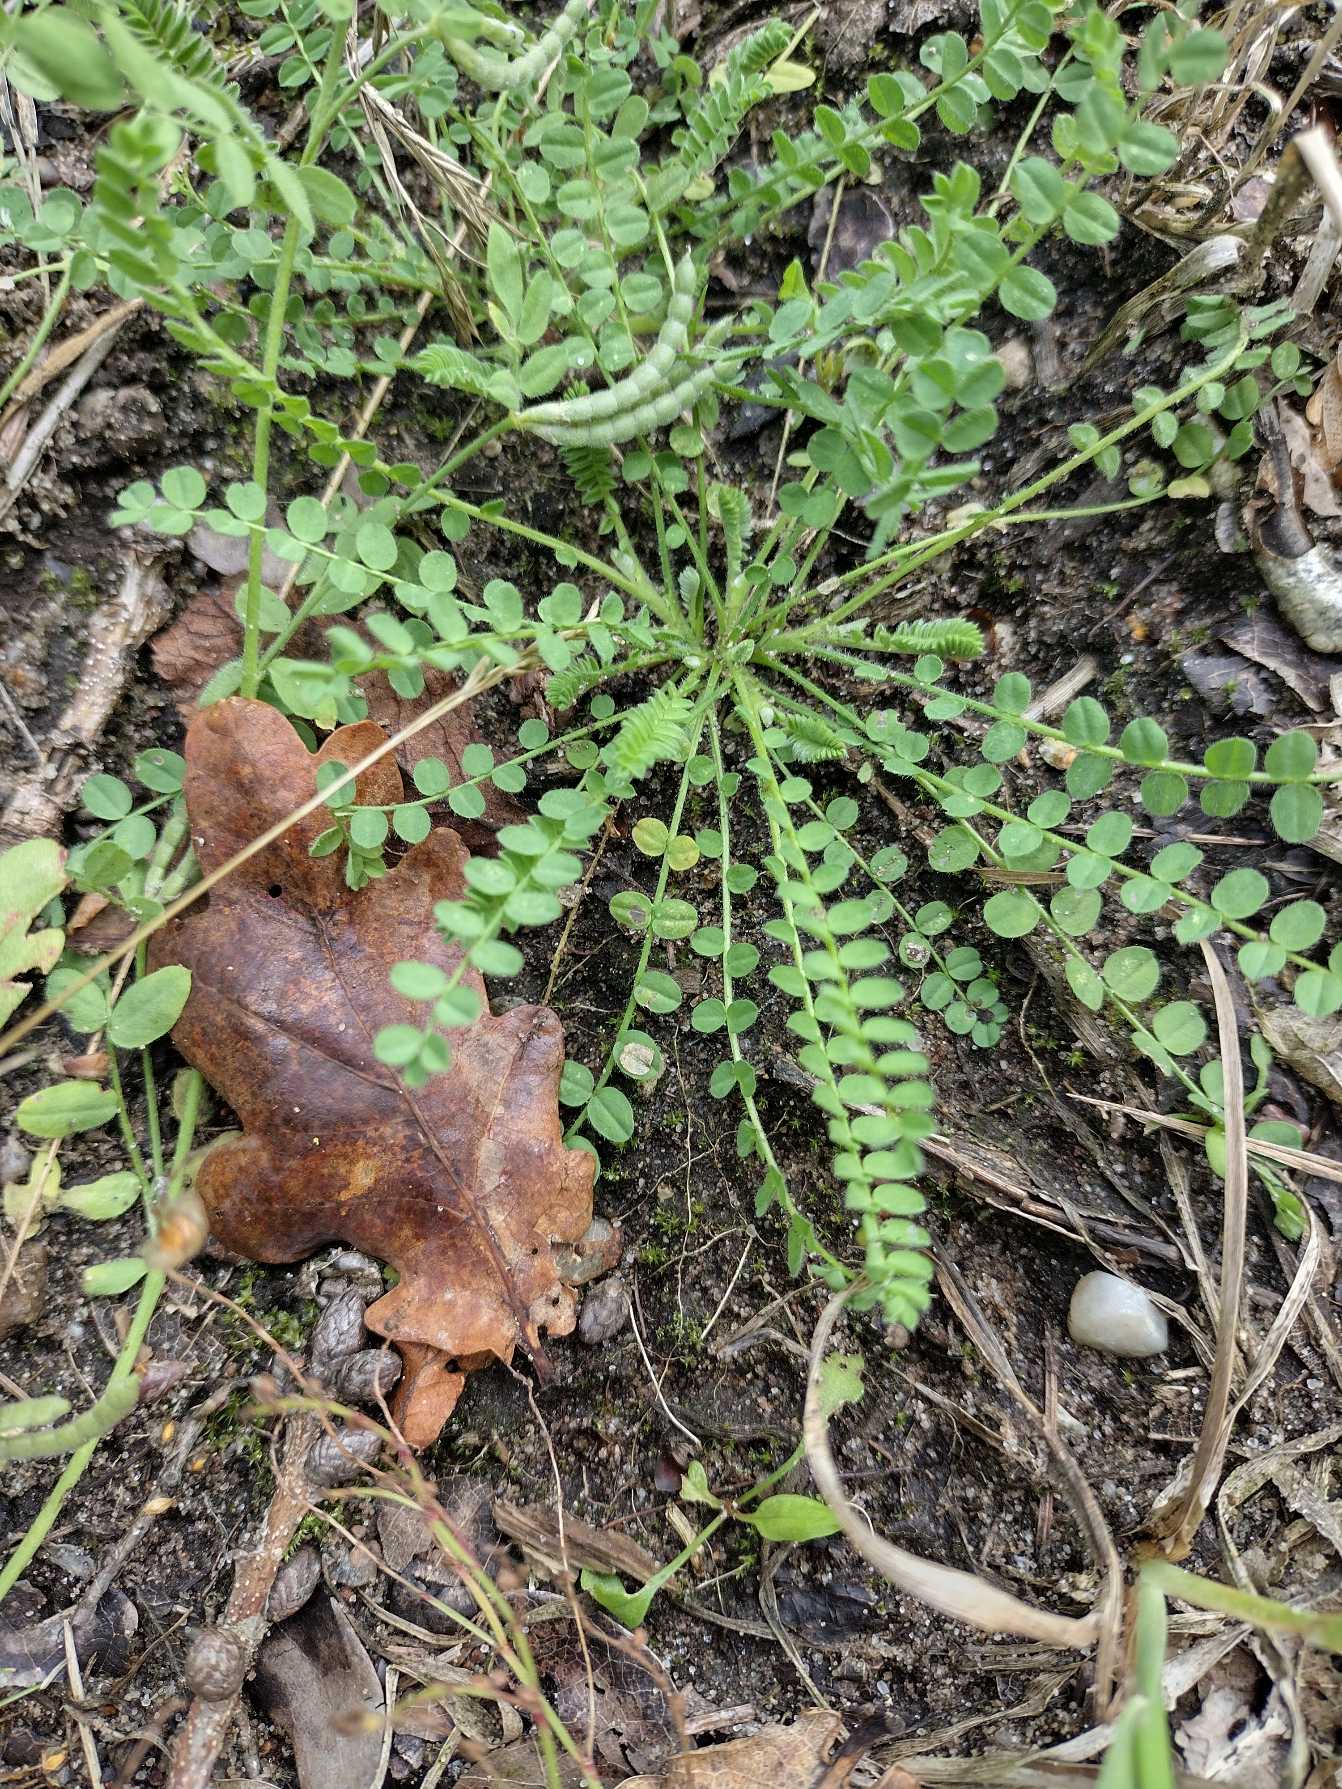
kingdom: Plantae
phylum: Tracheophyta
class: Magnoliopsida
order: Fabales
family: Fabaceae
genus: Ornithopus
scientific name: Ornithopus perpusillus
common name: Liden fugleklo
